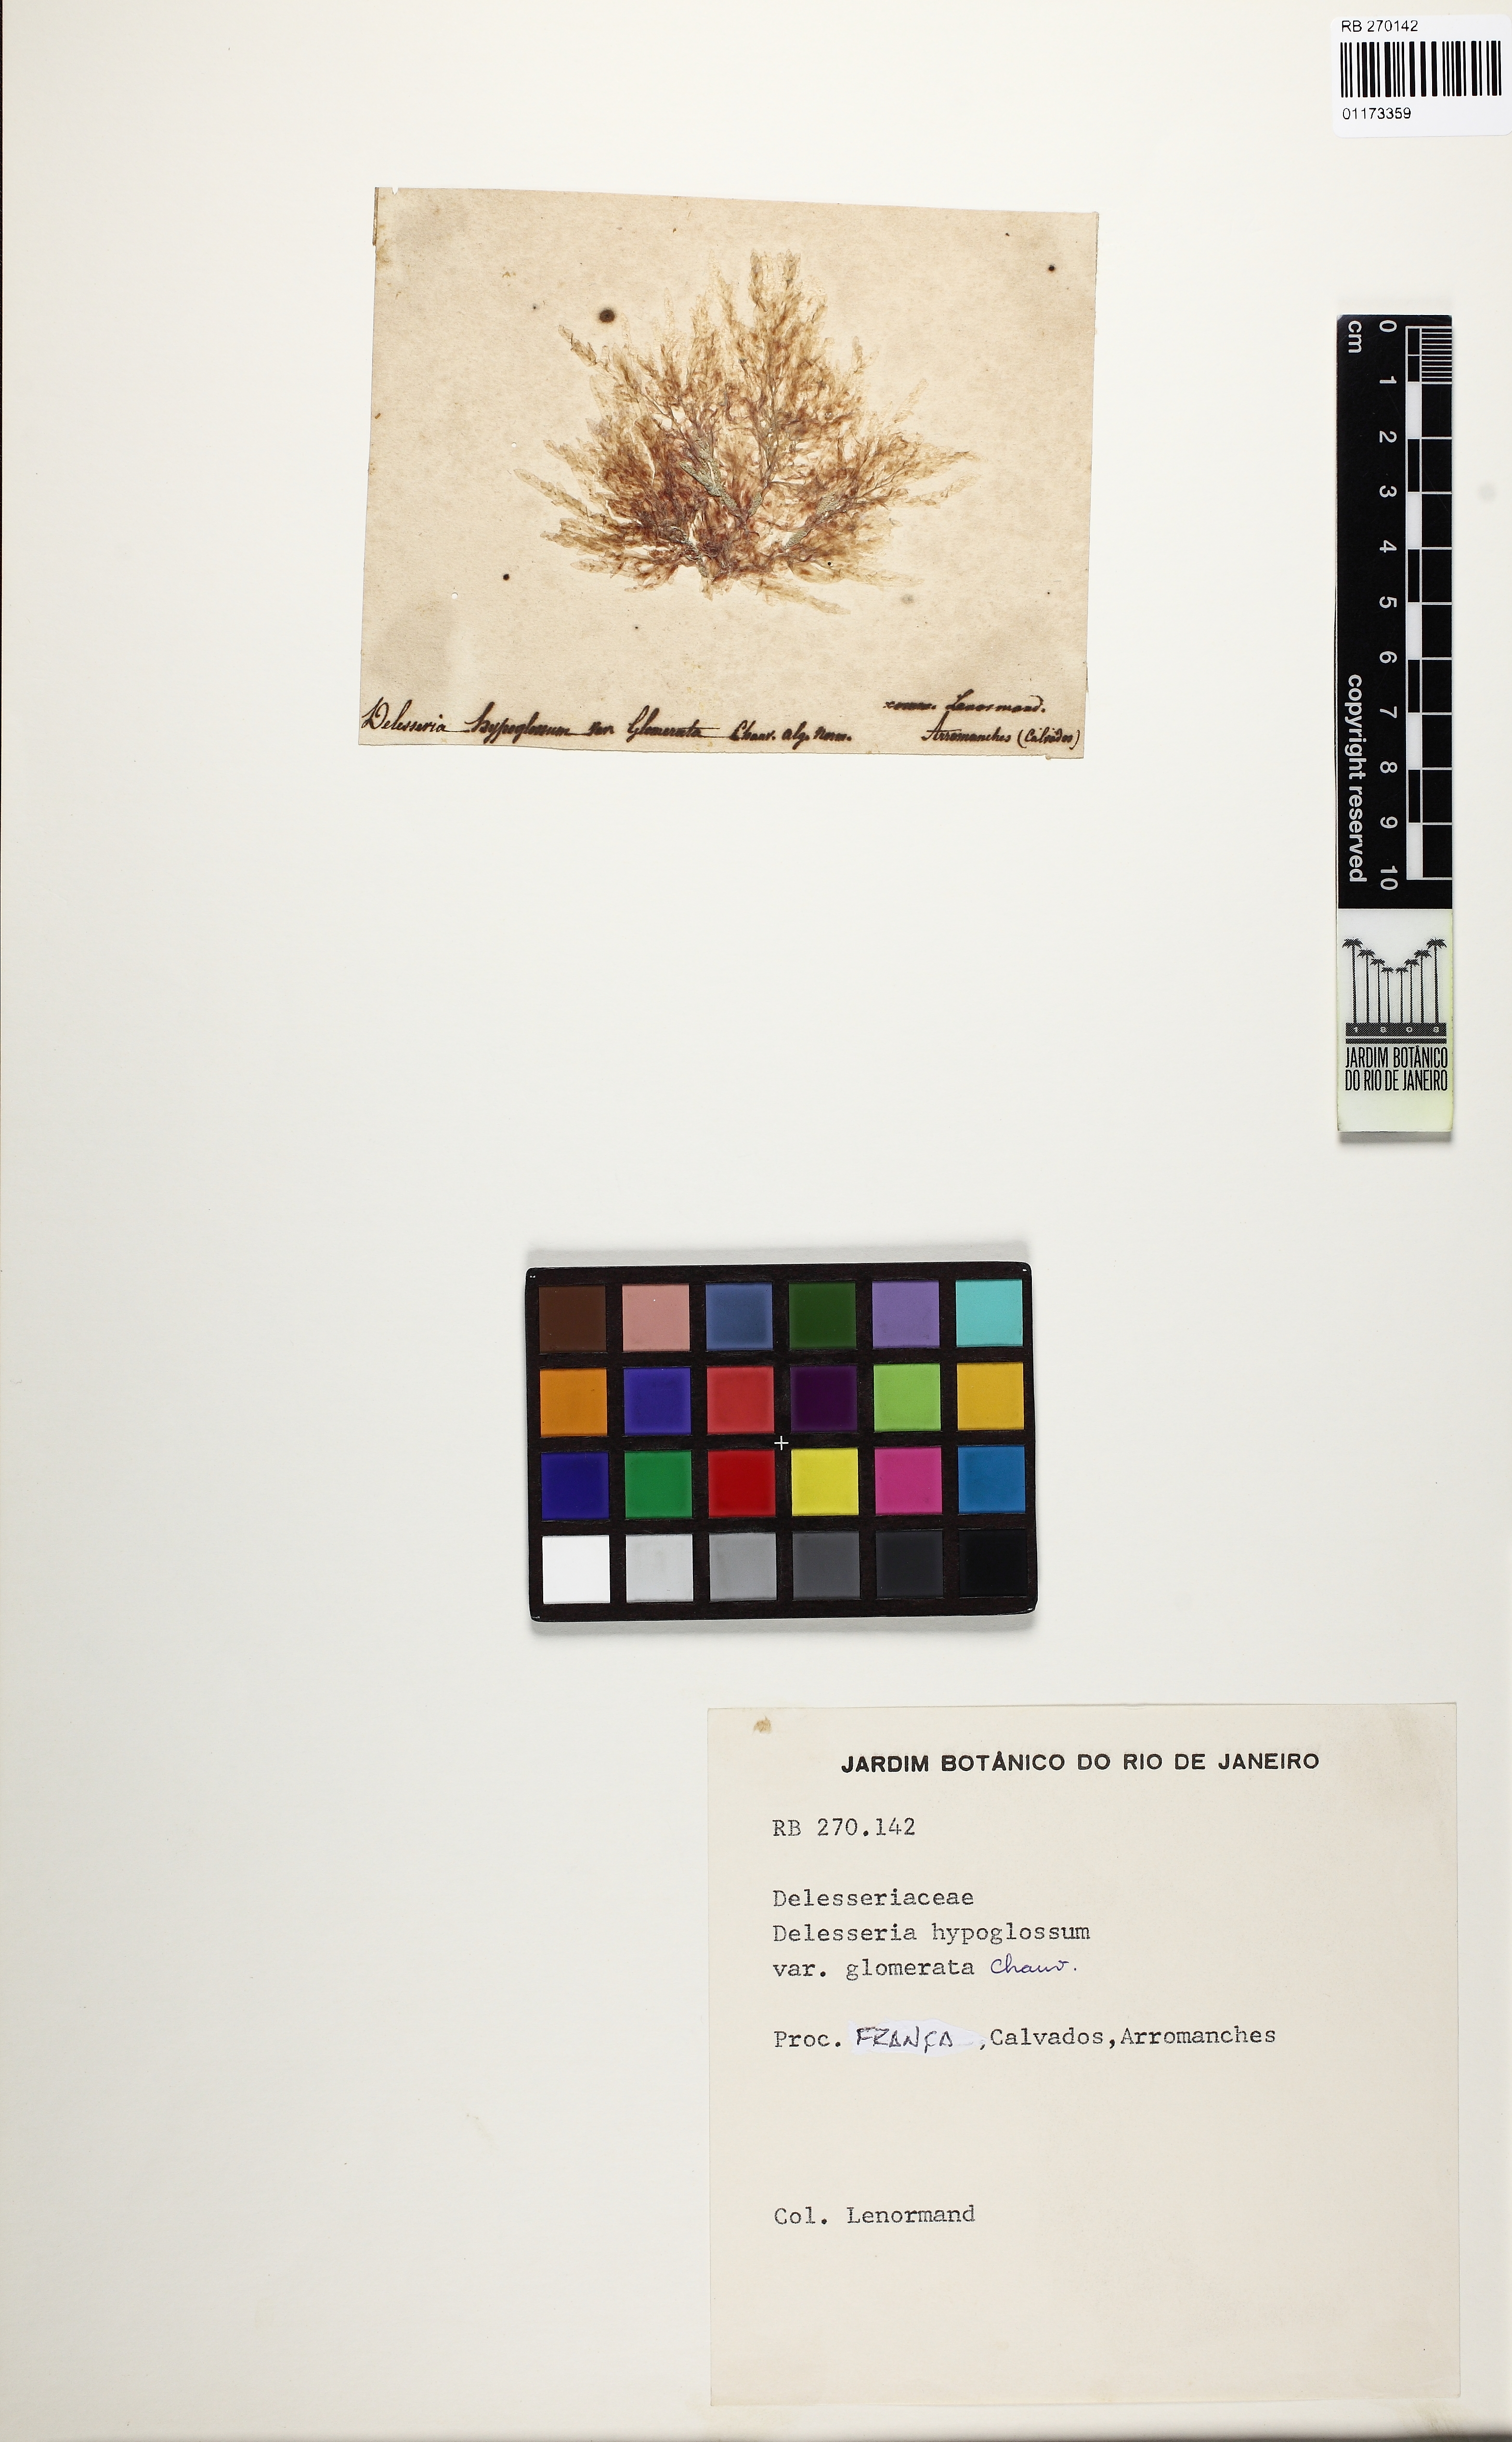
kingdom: Plantae
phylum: Rhodophyta
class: Florideophyceae
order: Ceramiales
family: Delesseriaceae
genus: Hypoglossum
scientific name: Hypoglossum hypoglossoides
